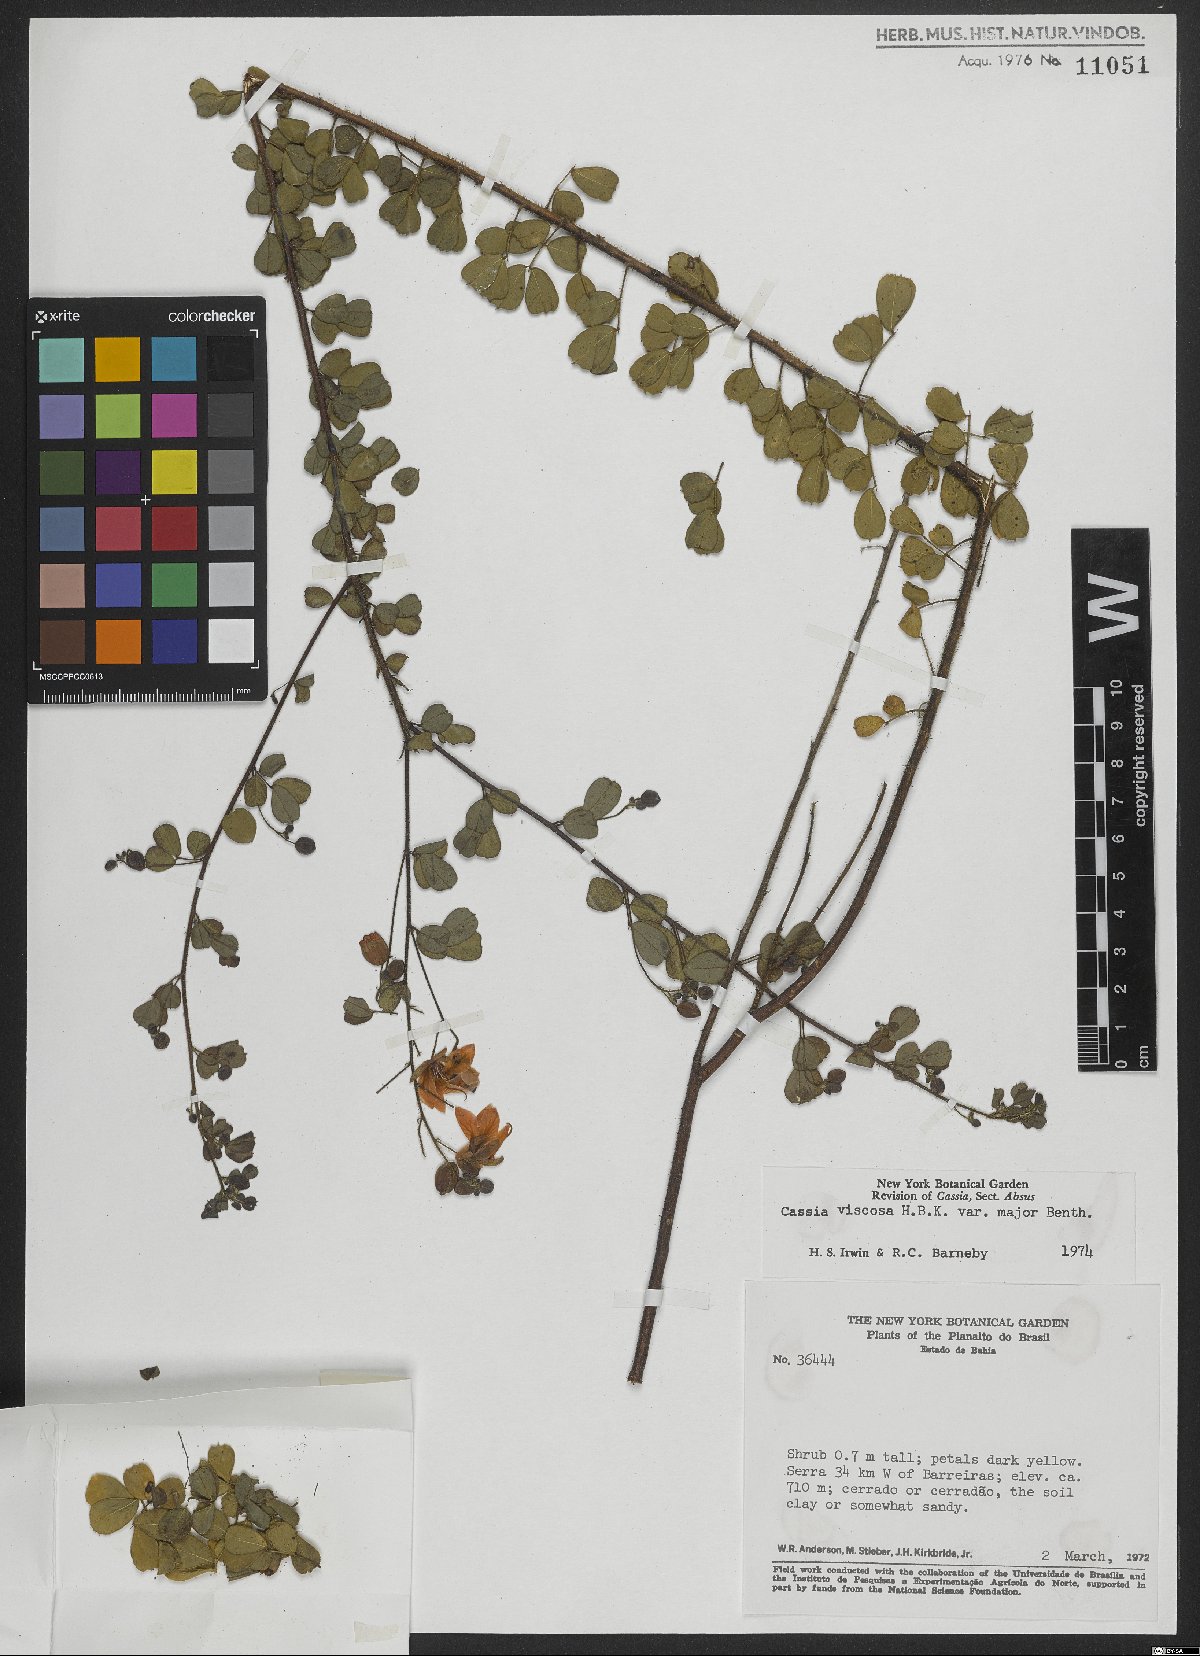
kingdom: Plantae
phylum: Tracheophyta
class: Magnoliopsida
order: Fabales
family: Fabaceae
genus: Chamaecrista
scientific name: Chamaecrista viscosa
